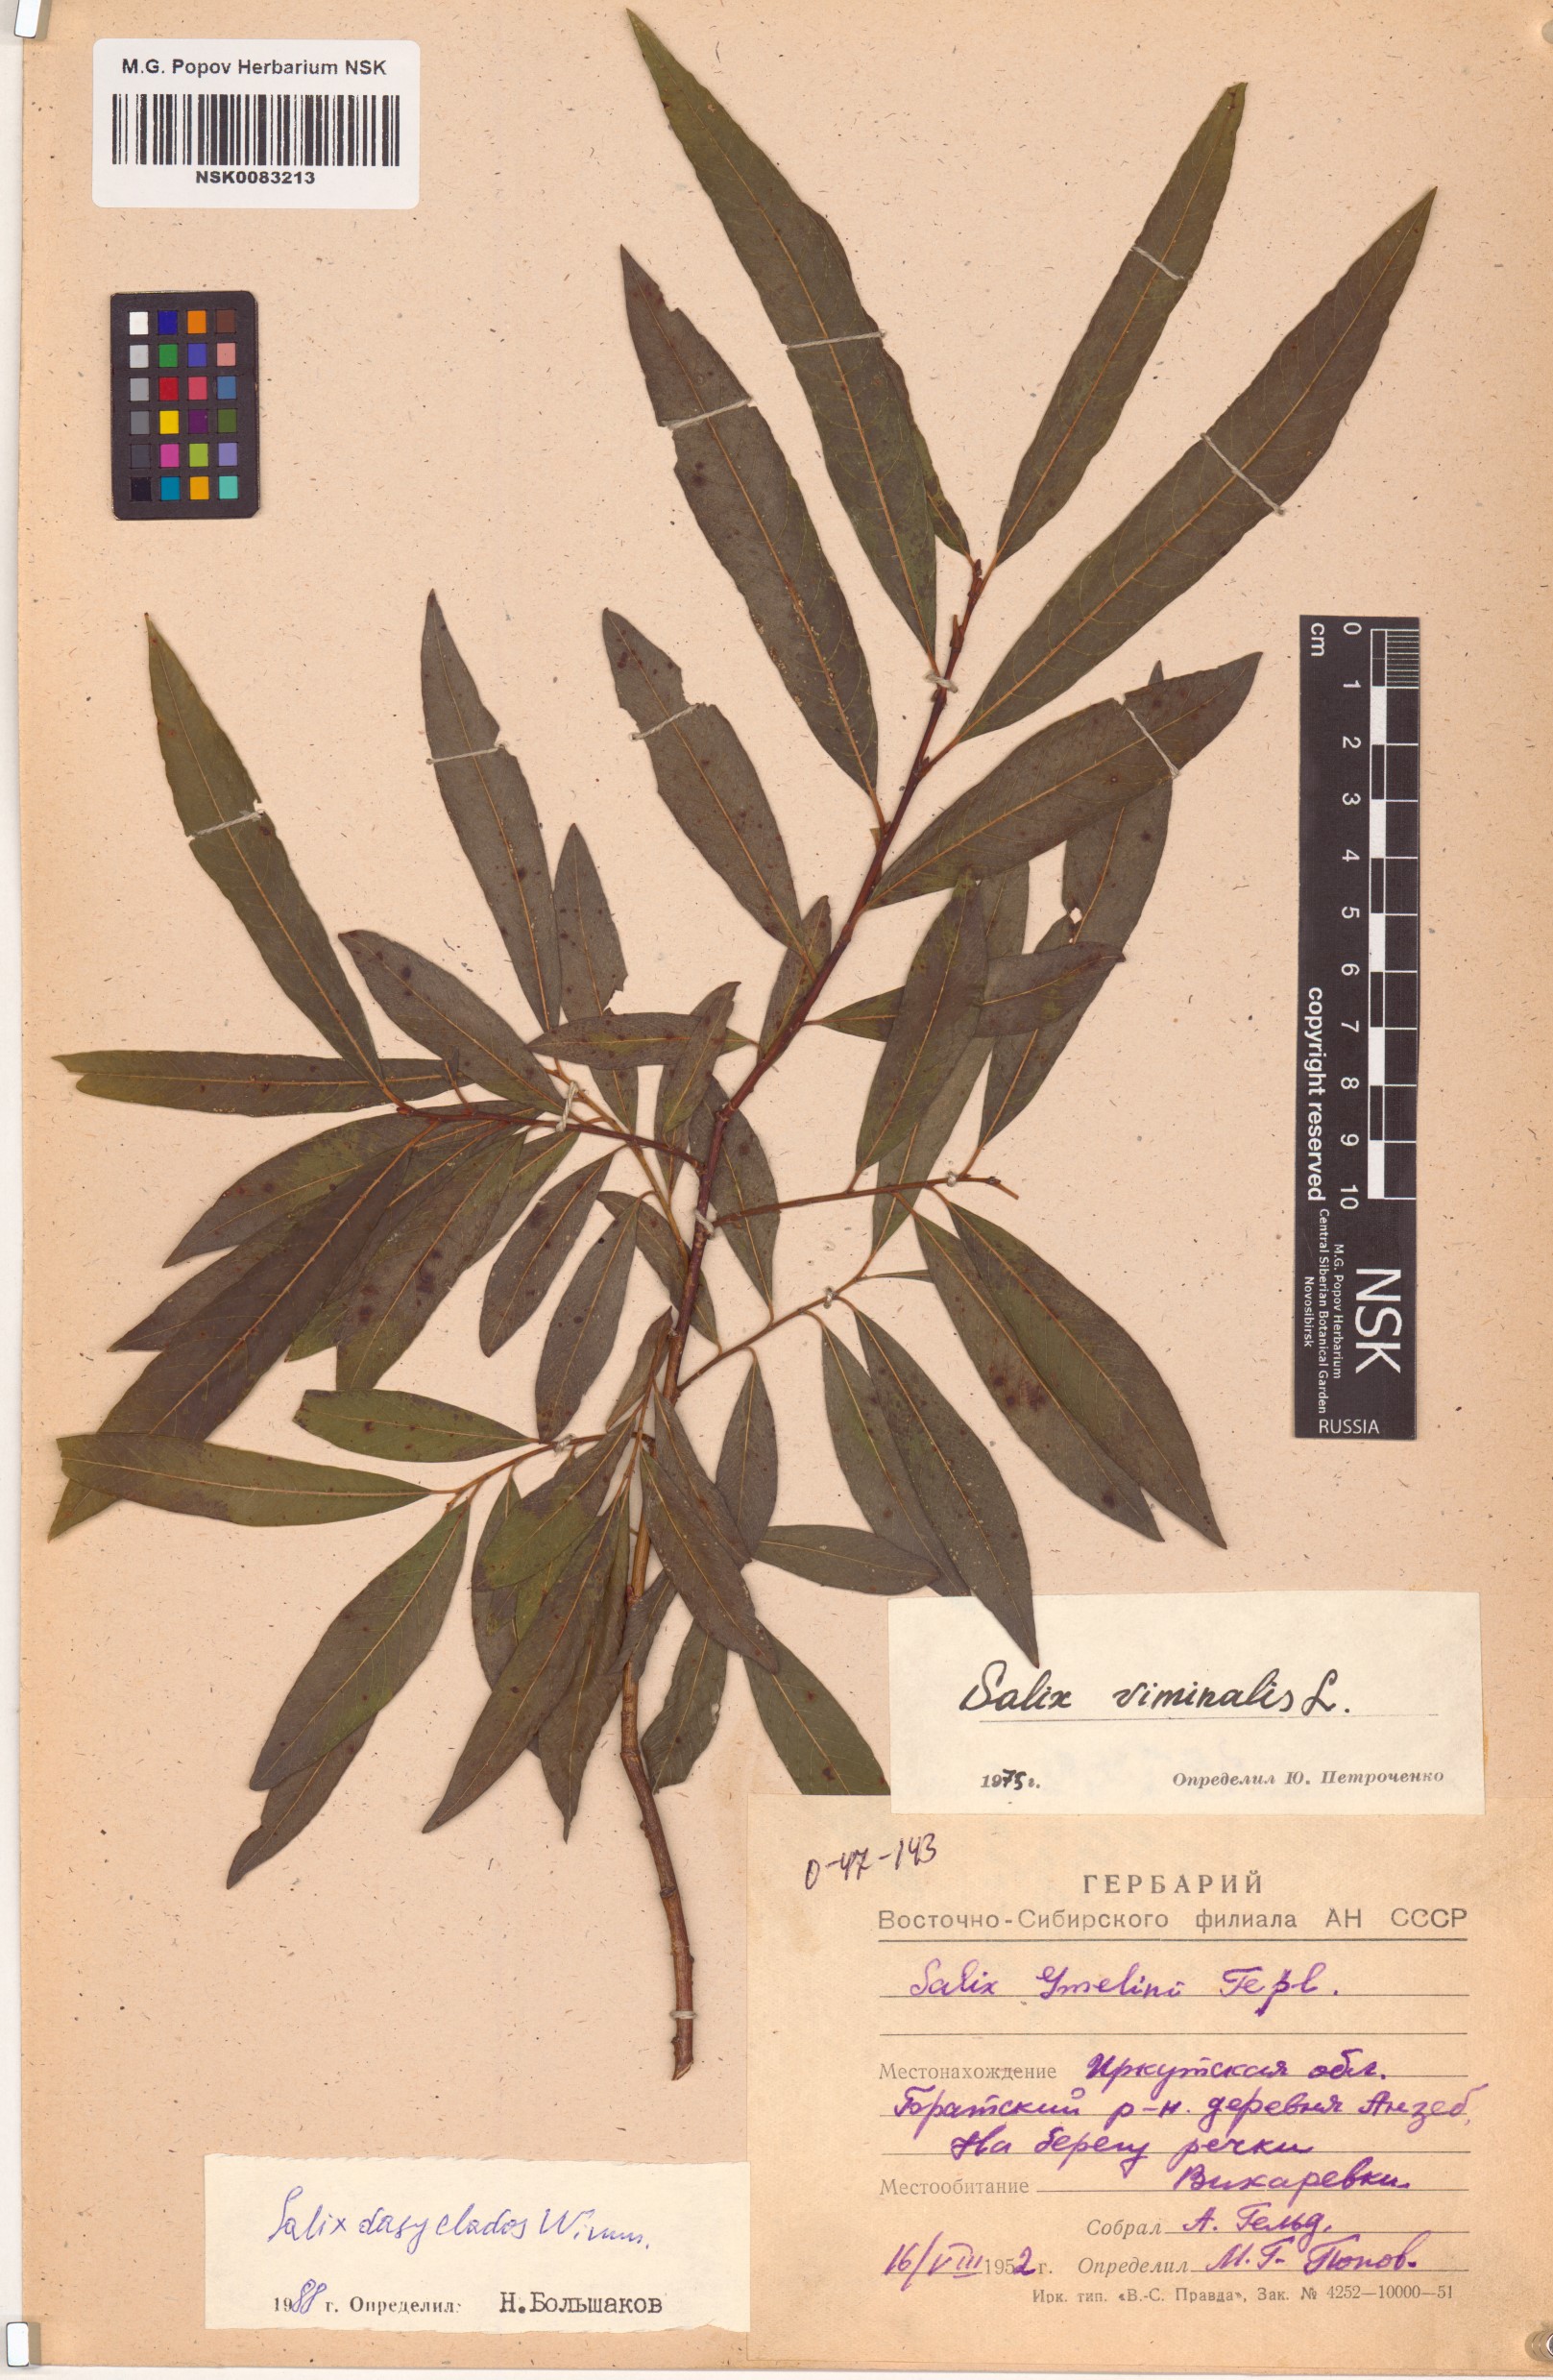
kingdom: Plantae
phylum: Tracheophyta
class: Magnoliopsida
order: Malpighiales
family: Salicaceae
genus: Salix
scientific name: Salix gmelinii
